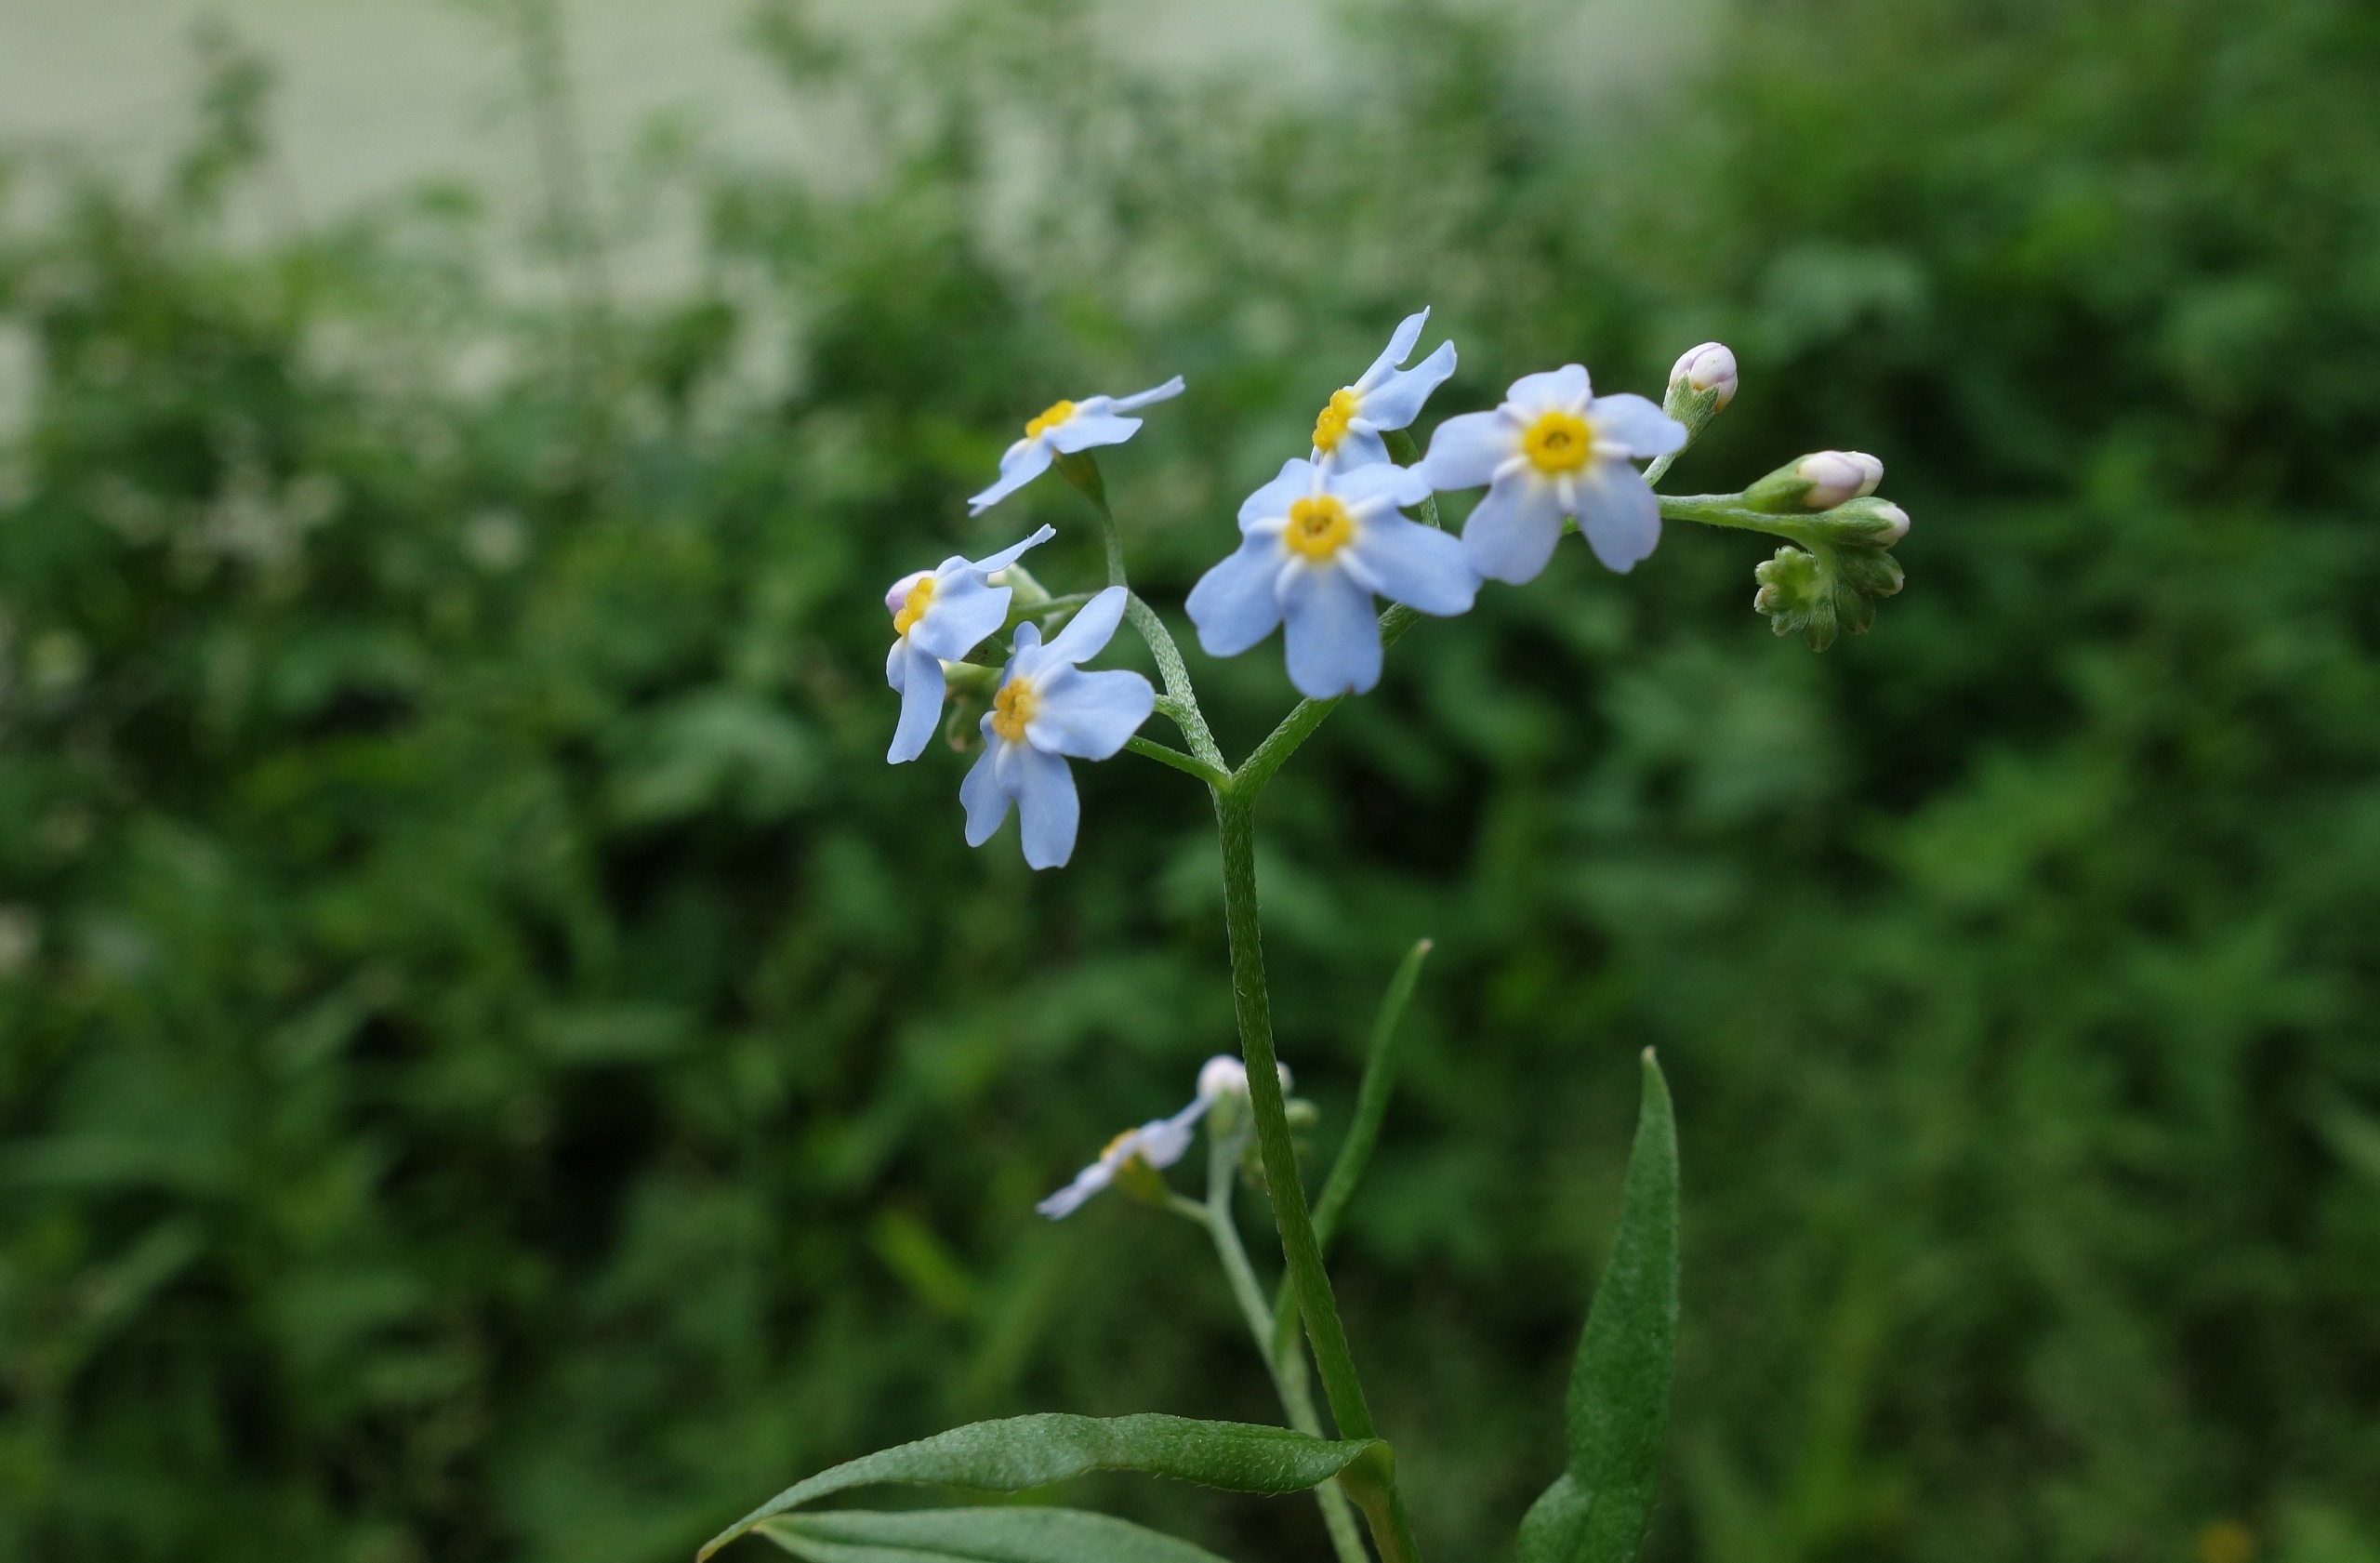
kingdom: Plantae
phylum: Tracheophyta
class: Magnoliopsida
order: Boraginales
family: Boraginaceae
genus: Myosotis
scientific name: Myosotis scorpioides
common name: Eng-forglemmigej
